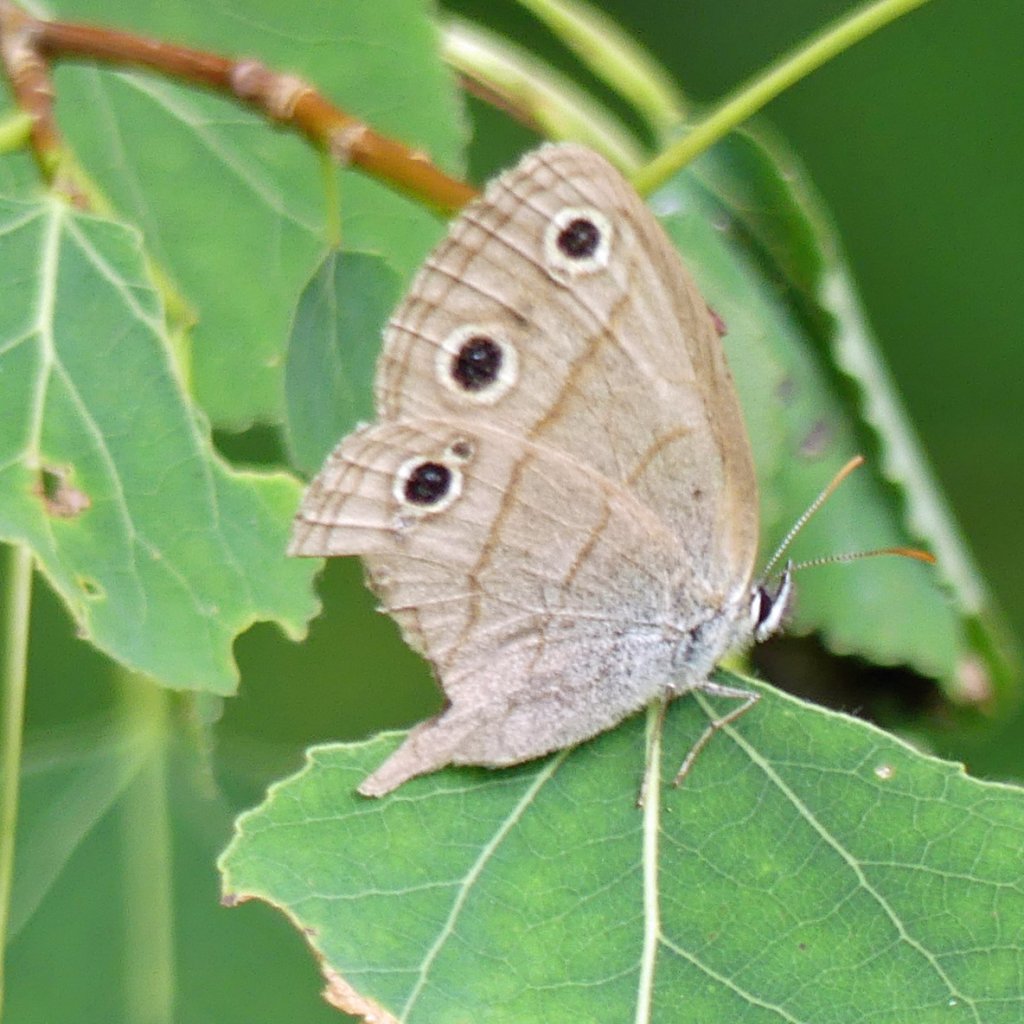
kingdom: Animalia
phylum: Arthropoda
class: Insecta
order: Lepidoptera
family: Nymphalidae
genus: Euptychia
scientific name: Euptychia cymela
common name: Little Wood Satyr
